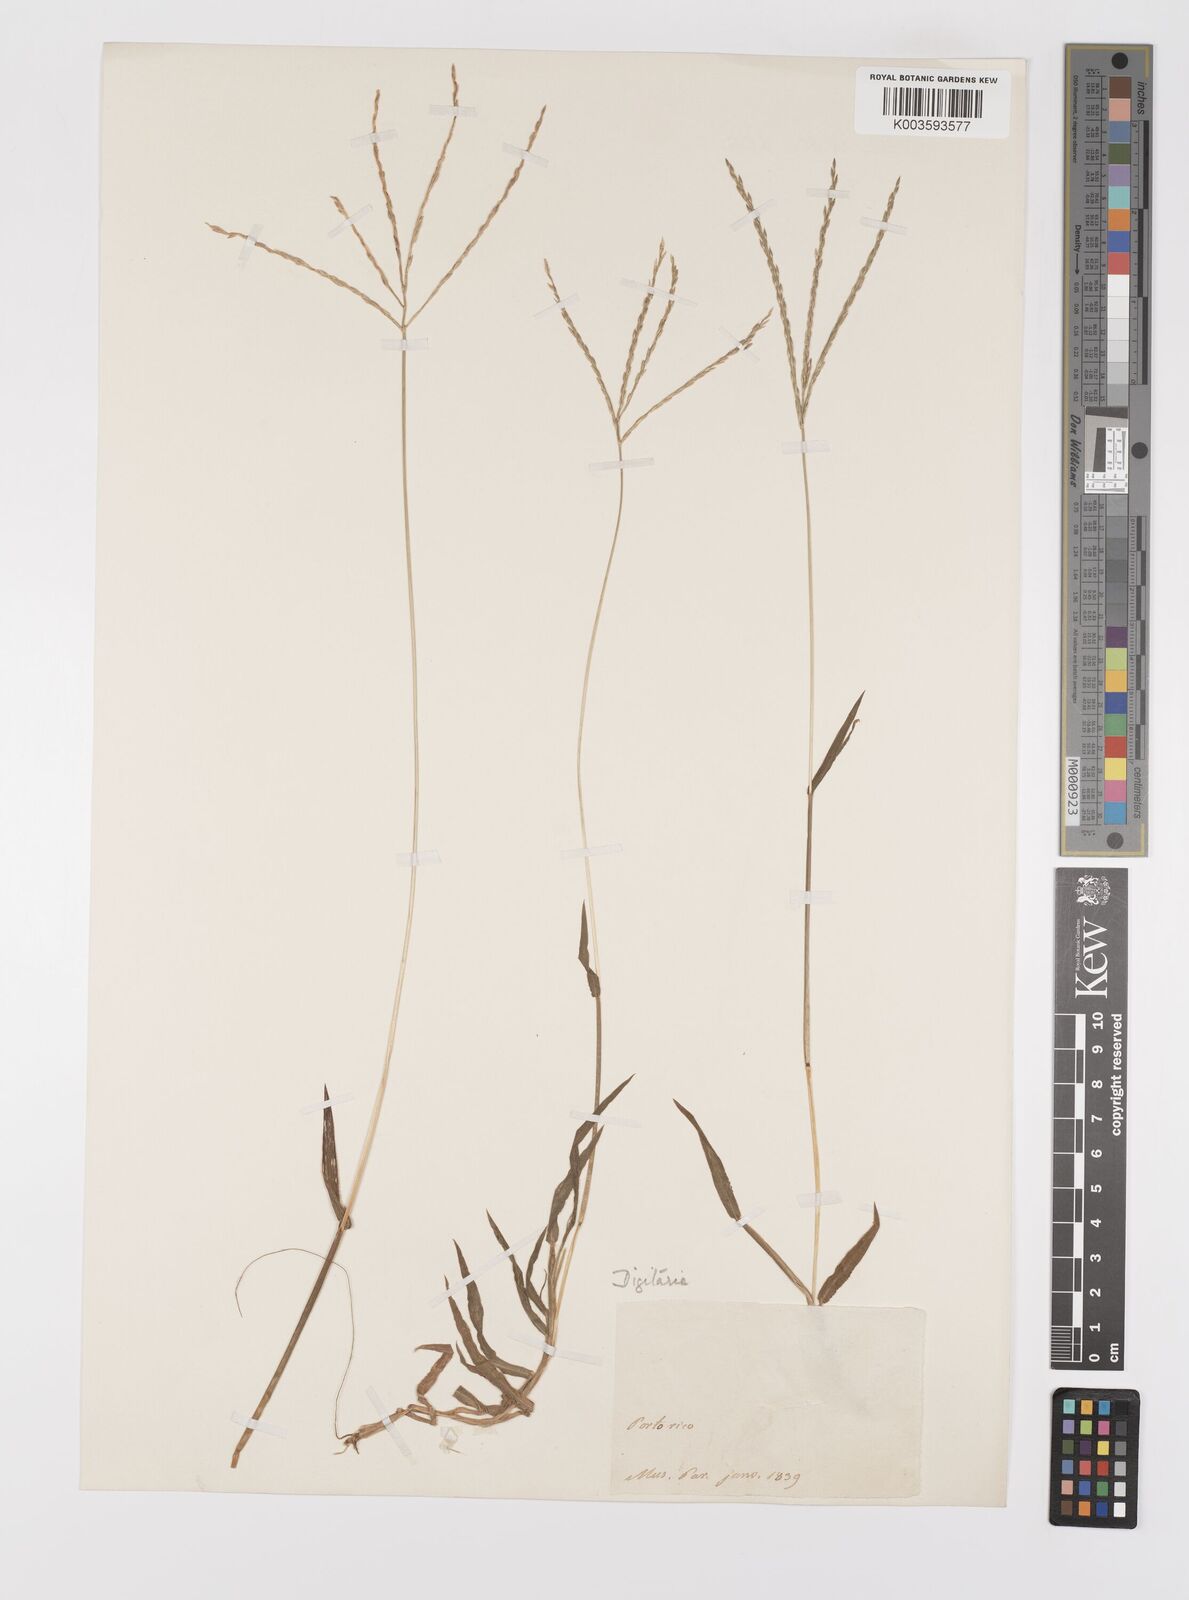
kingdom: Plantae
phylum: Tracheophyta
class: Liliopsida
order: Poales
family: Poaceae
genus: Digitaria
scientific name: Digitaria ciliaris
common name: Tropical finger-grass
